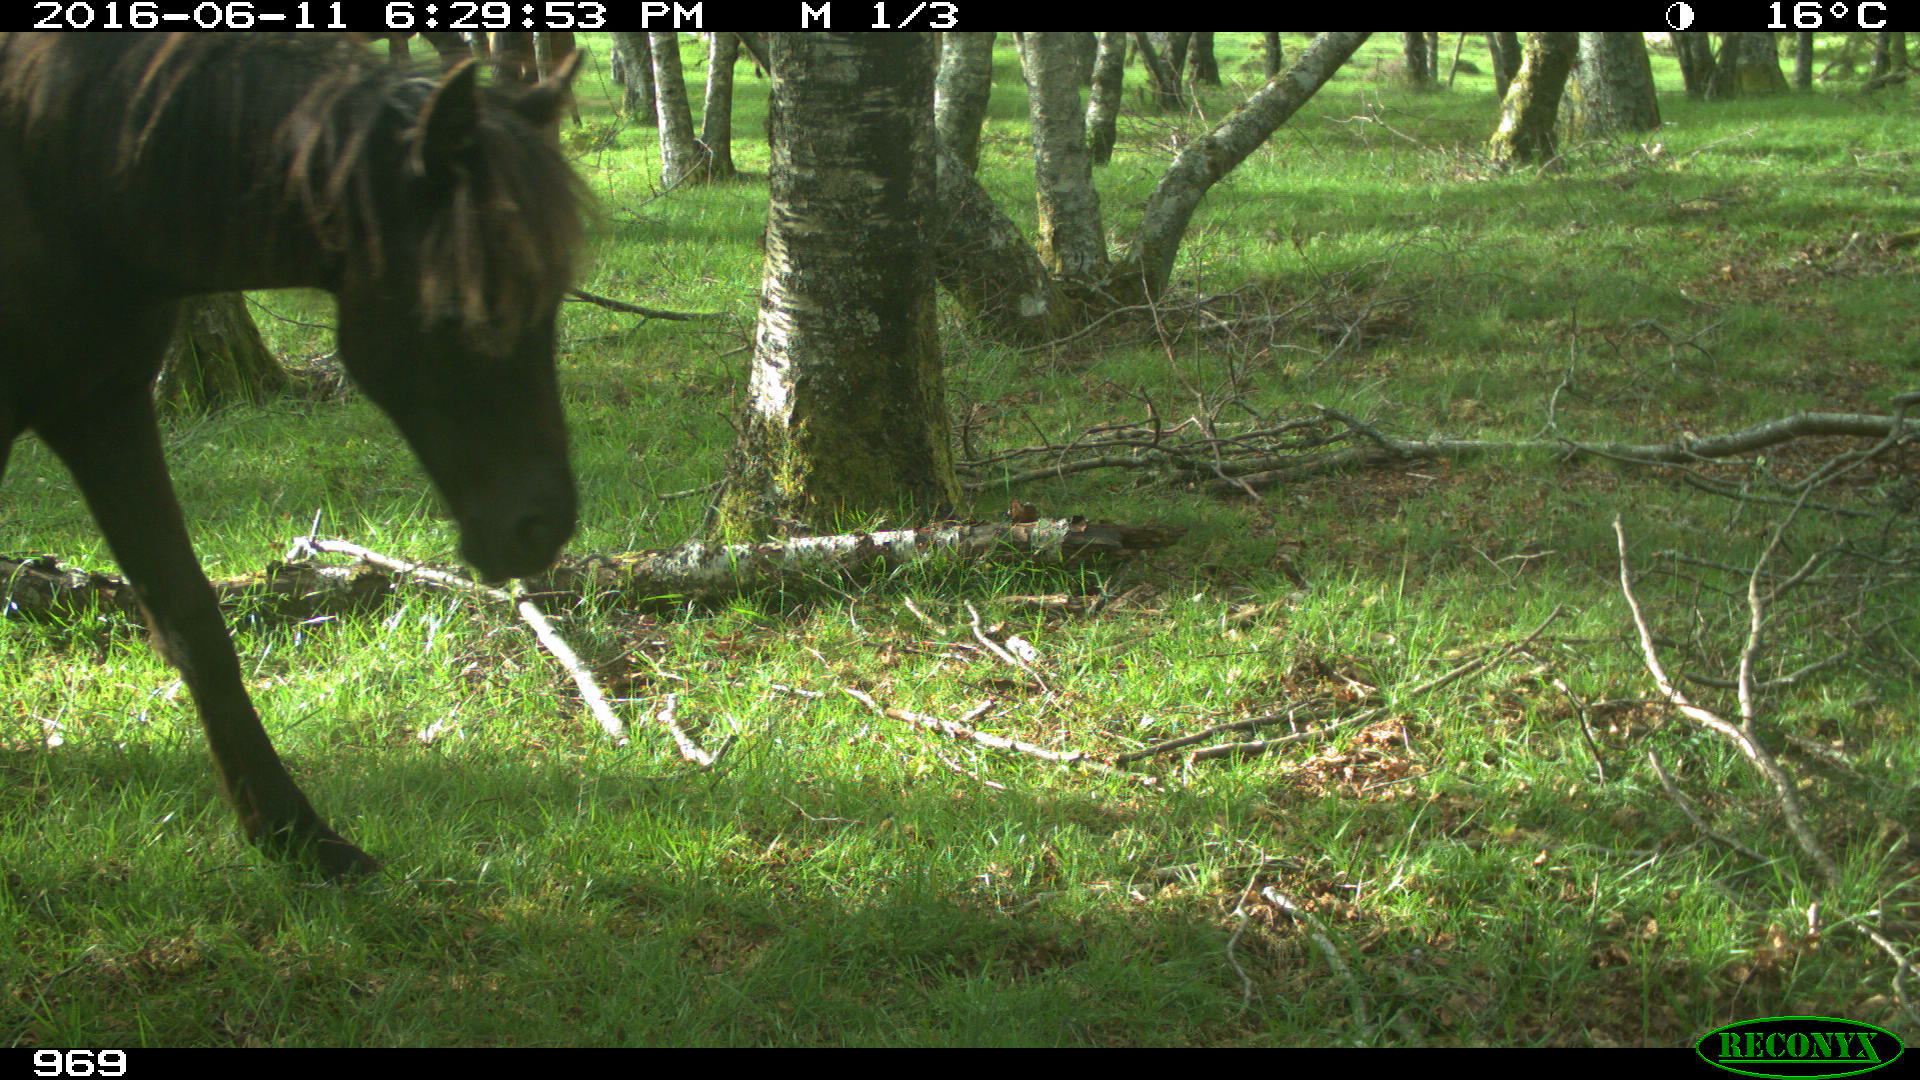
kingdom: Animalia
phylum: Chordata
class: Mammalia
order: Perissodactyla
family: Equidae
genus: Equus
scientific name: Equus caballus
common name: Horse
